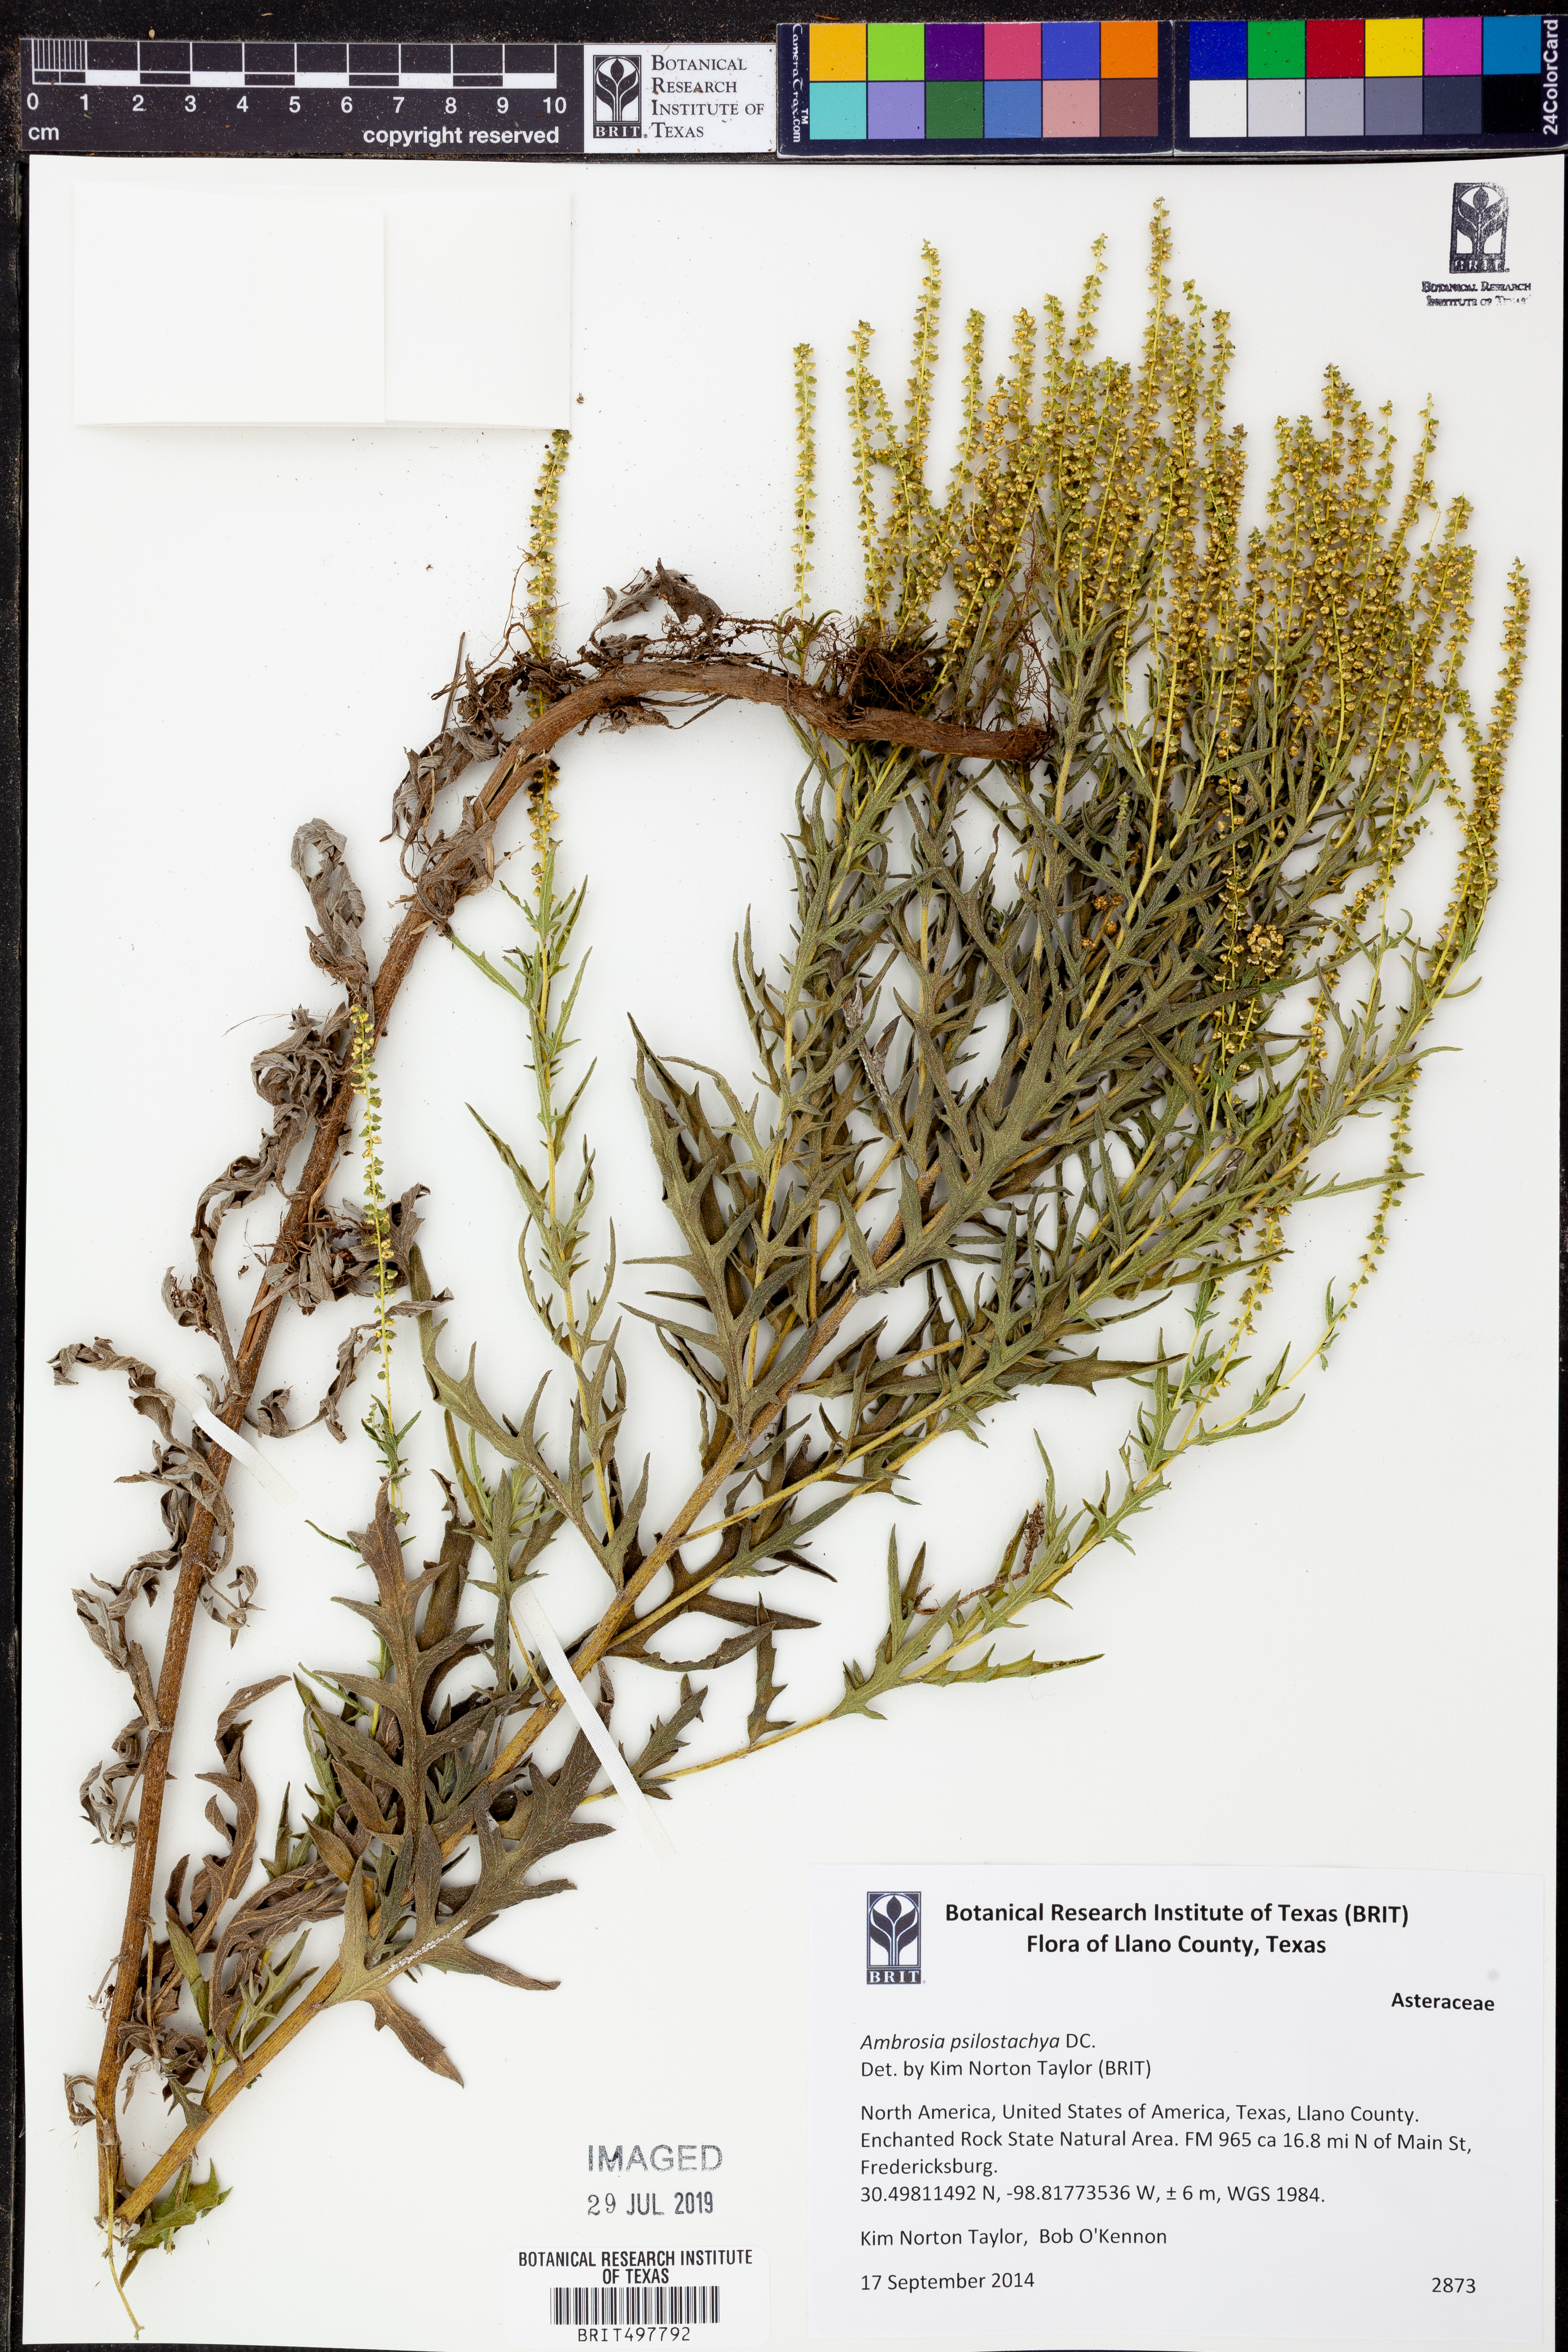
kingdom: Plantae
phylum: Tracheophyta
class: Magnoliopsida
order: Asterales
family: Asteraceae
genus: Ambrosia
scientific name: Ambrosia psilostachya
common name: Perennial ragweed
